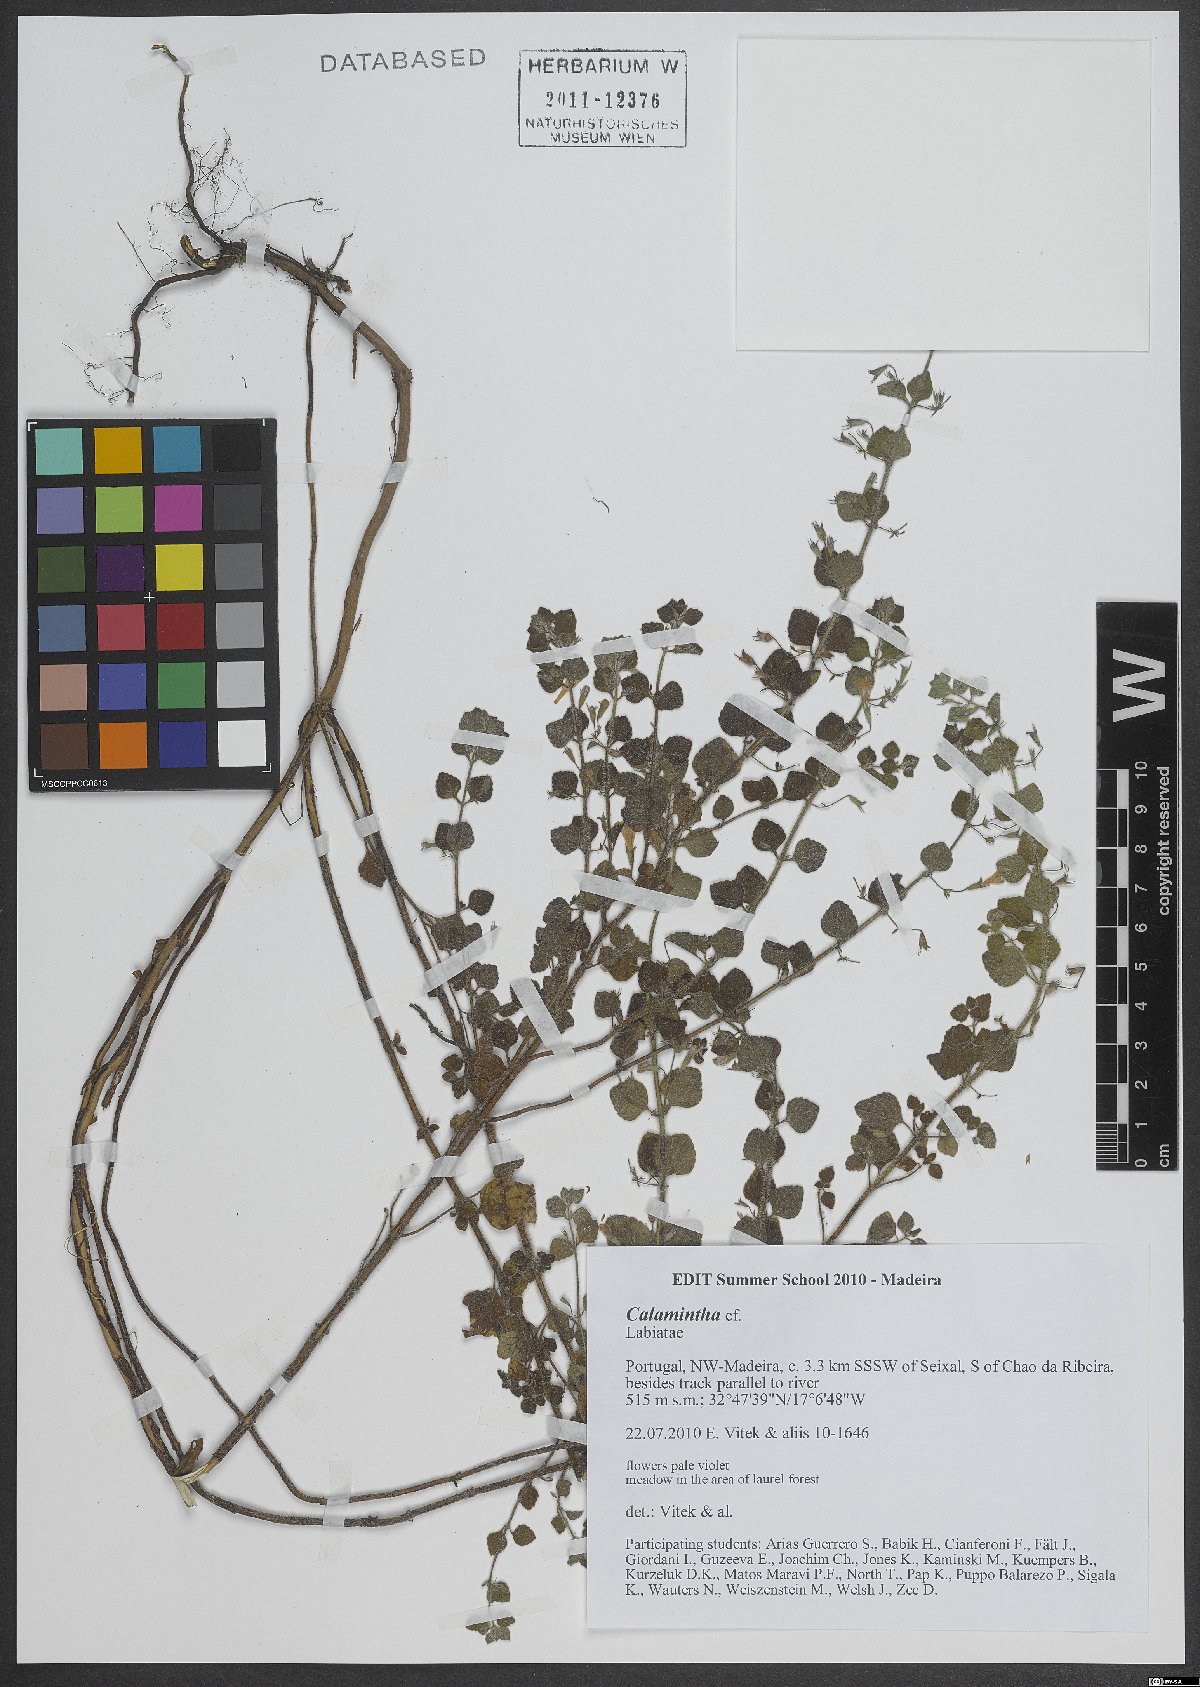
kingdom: Plantae
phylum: Tracheophyta
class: Magnoliopsida
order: Lamiales
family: Lamiaceae
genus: Calamintha
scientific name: Calamintha
